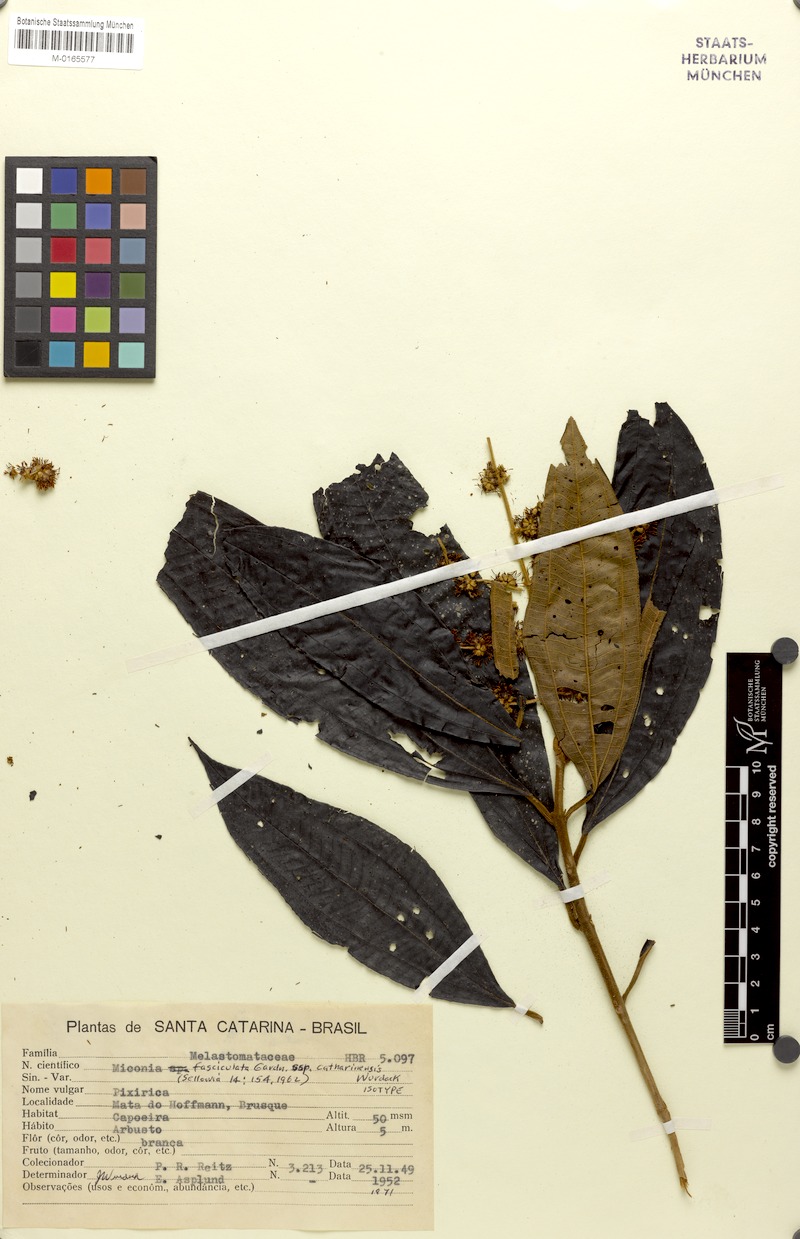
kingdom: Plantae
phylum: Tracheophyta
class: Magnoliopsida
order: Myrtales
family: Melastomataceae
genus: Miconia
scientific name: Miconia fasciculata
